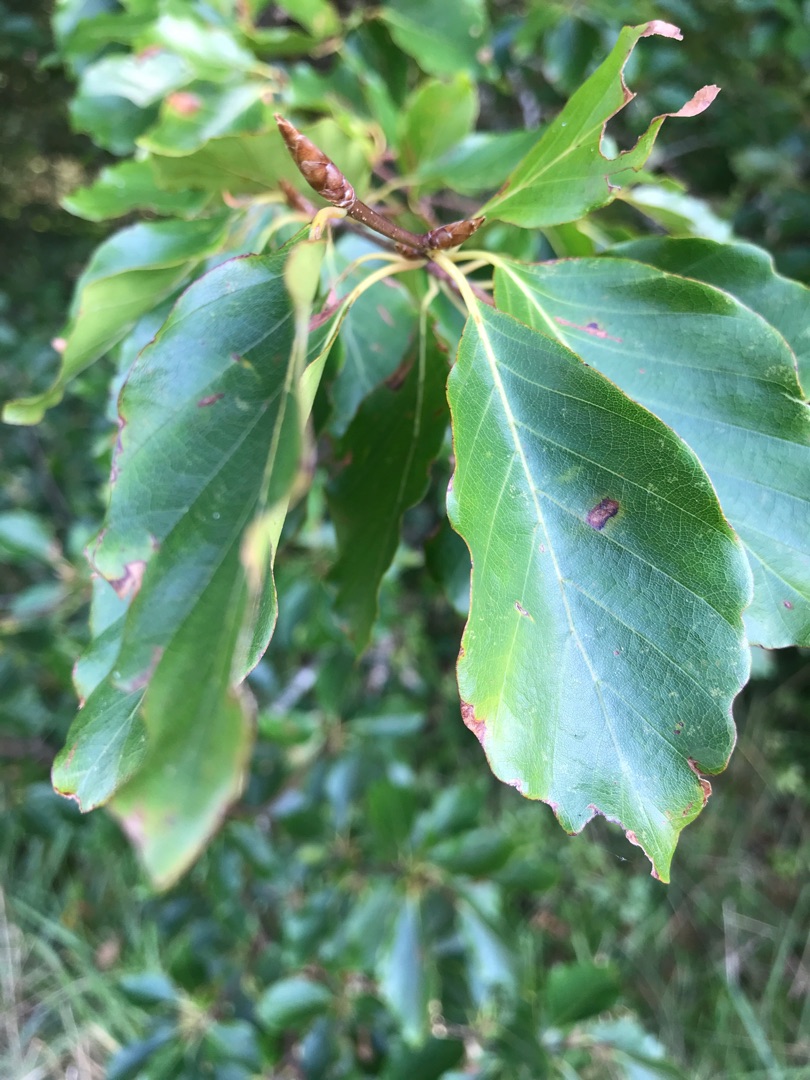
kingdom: Plantae
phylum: Tracheophyta
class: Magnoliopsida
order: Fagales
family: Fagaceae
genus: Fagus
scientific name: Fagus sylvatica
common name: Bøg
